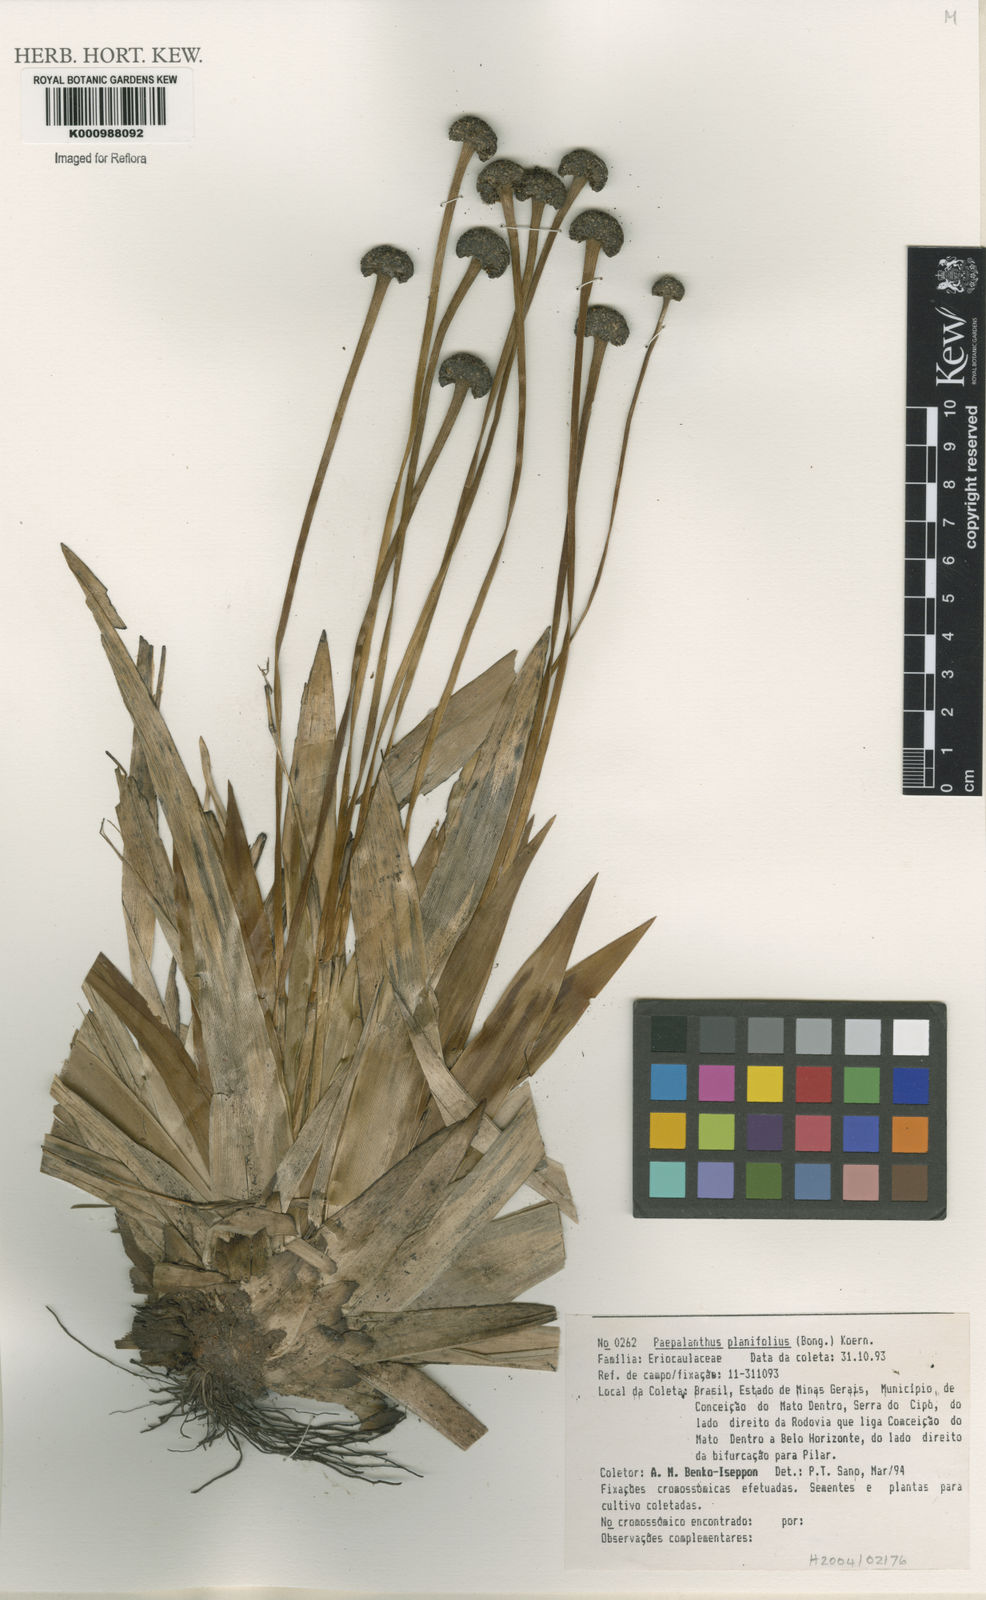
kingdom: Plantae
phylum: Tracheophyta
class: Liliopsida
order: Poales
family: Eriocaulaceae
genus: Paepalanthus
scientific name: Paepalanthus
